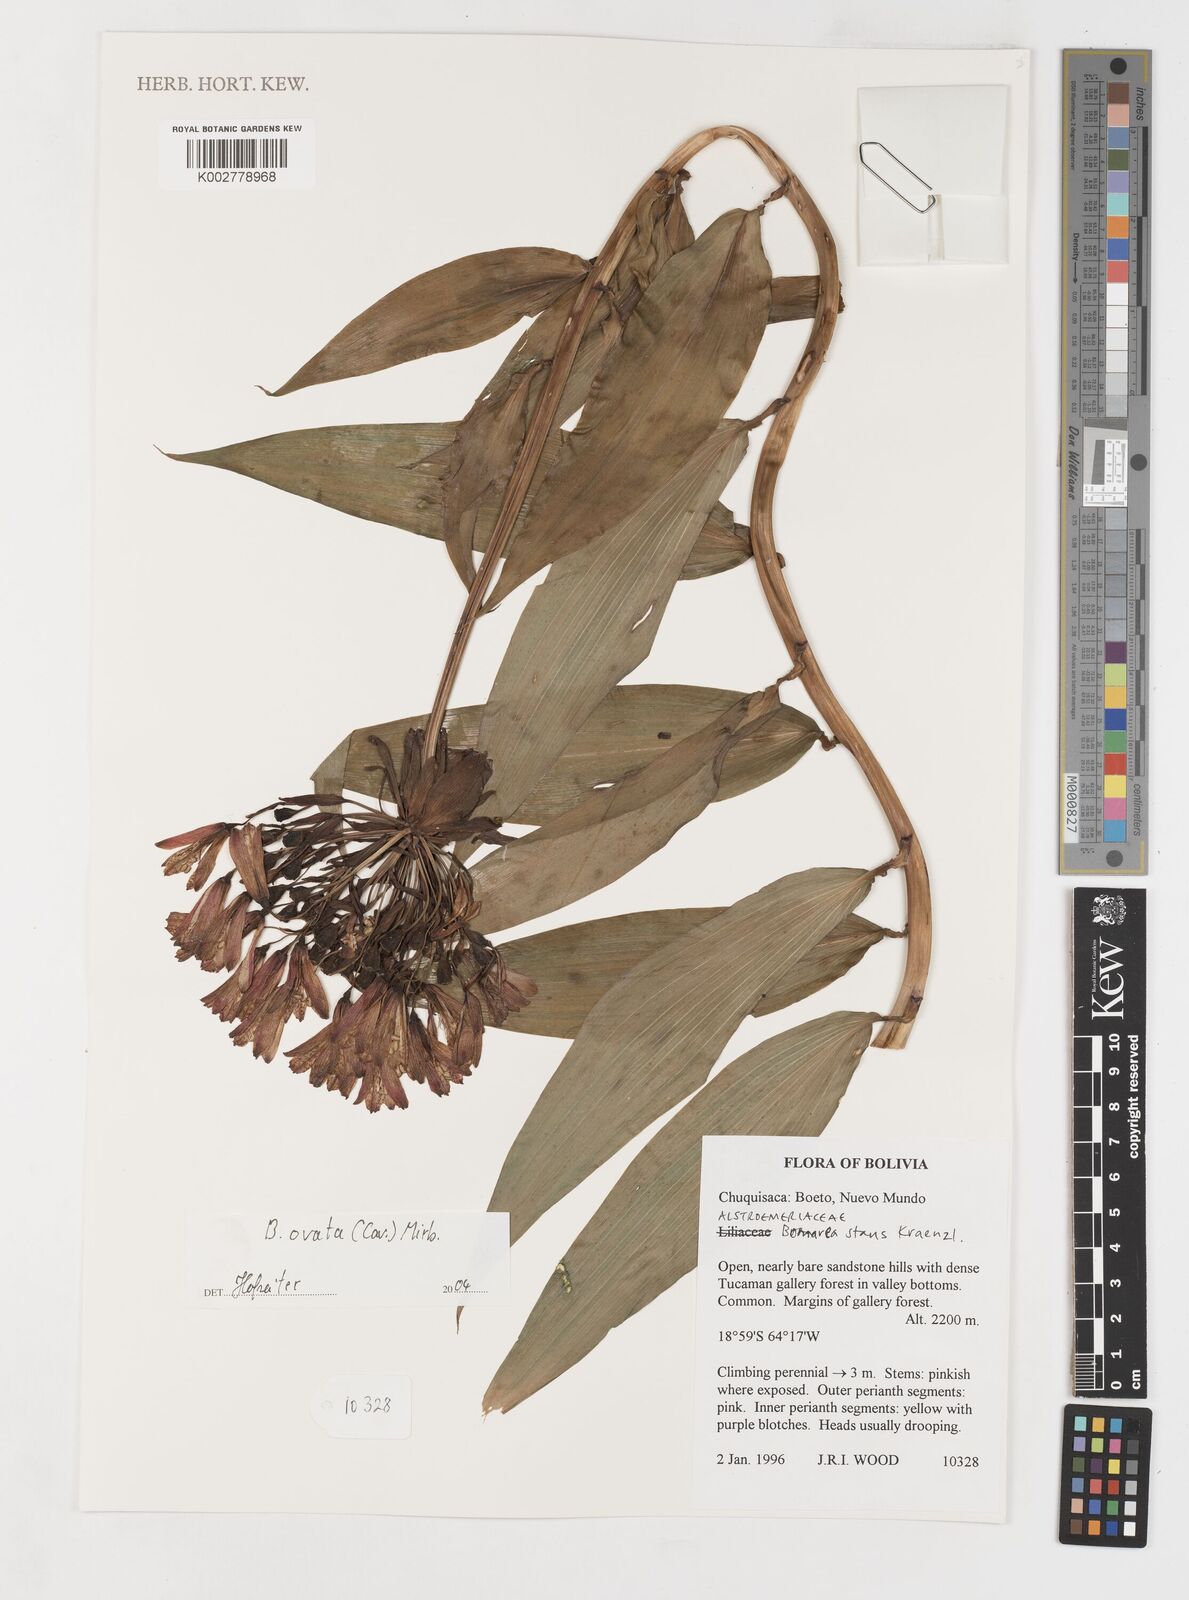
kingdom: Plantae
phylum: Tracheophyta
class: Liliopsida
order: Liliales
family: Alstroemeriaceae
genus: Bomarea
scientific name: Bomarea ovata
